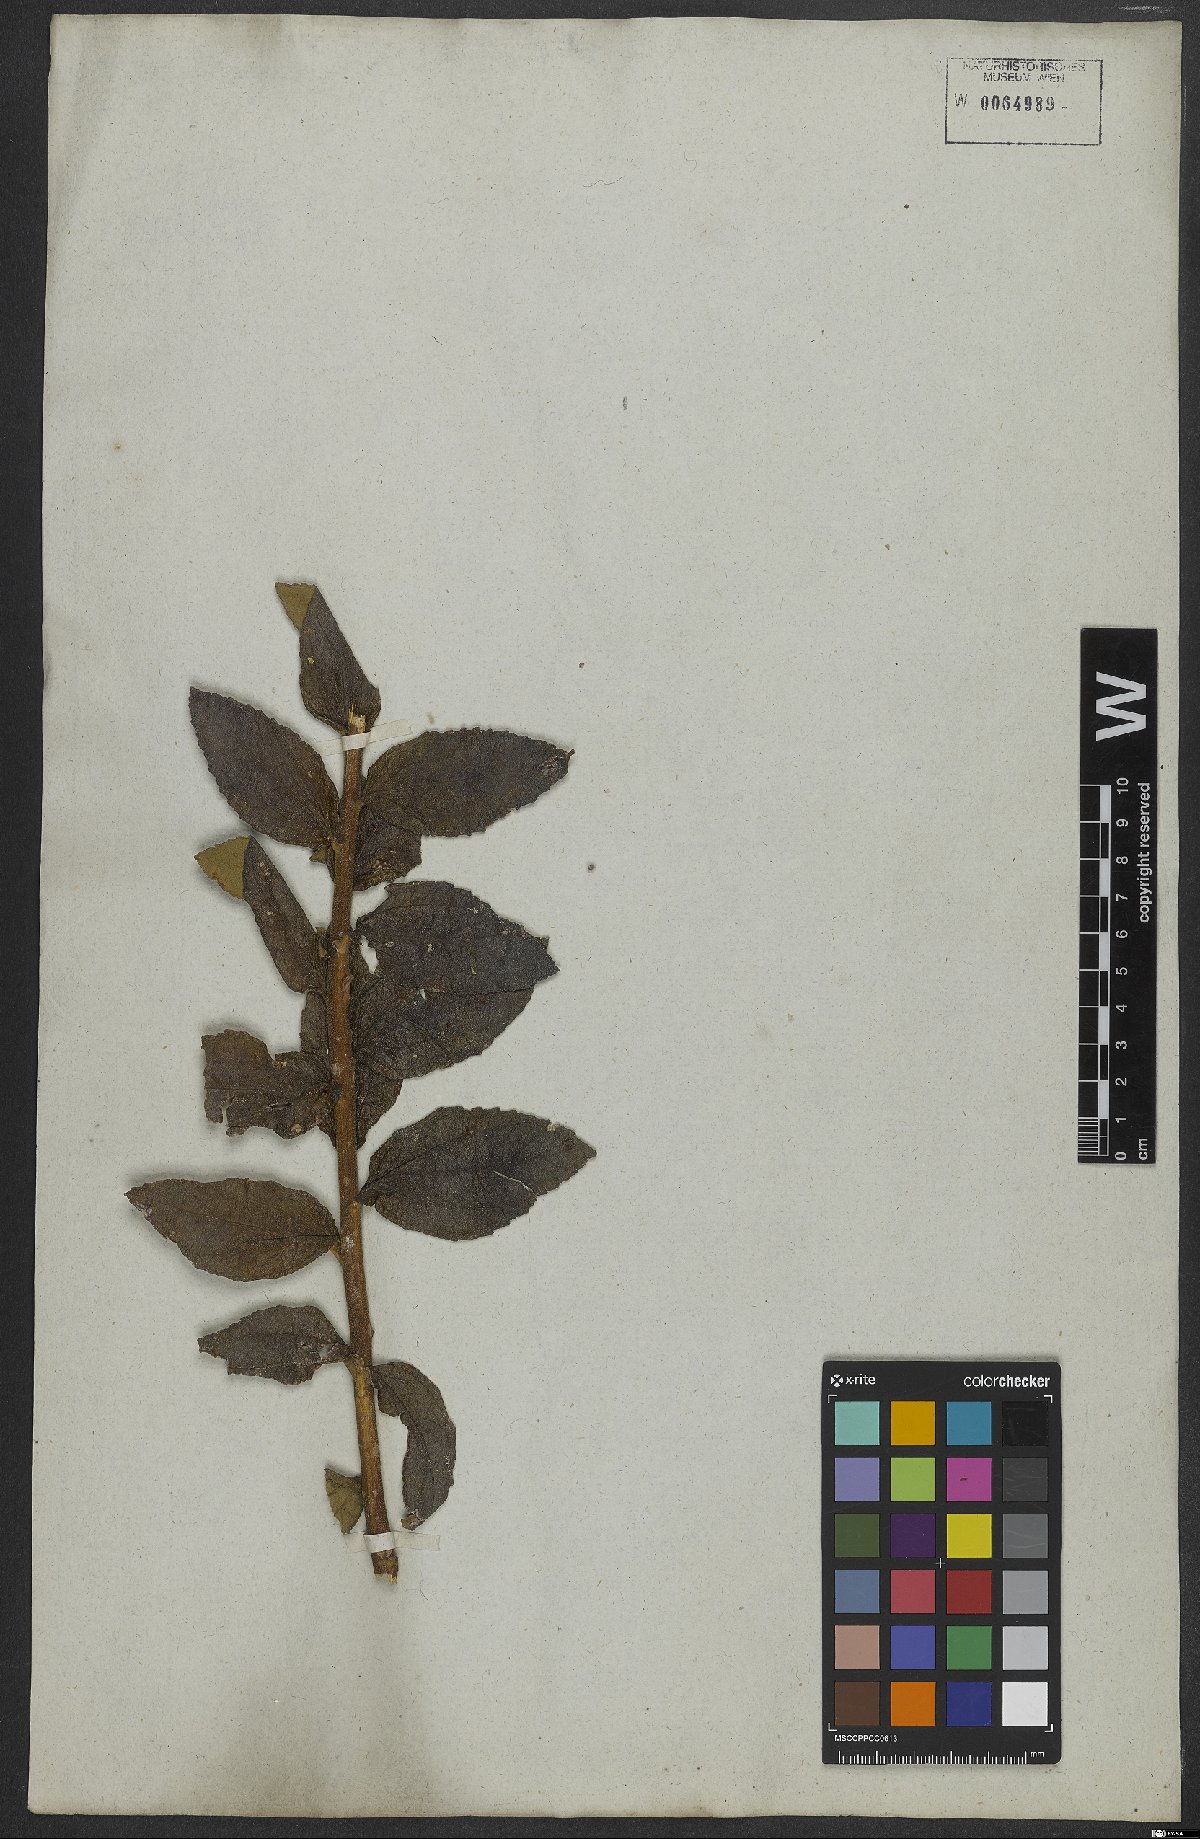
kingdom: Plantae
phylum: Tracheophyta
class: Magnoliopsida
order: Asterales
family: Asteraceae
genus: Lessingianthus
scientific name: Lessingianthus varroniifolius
